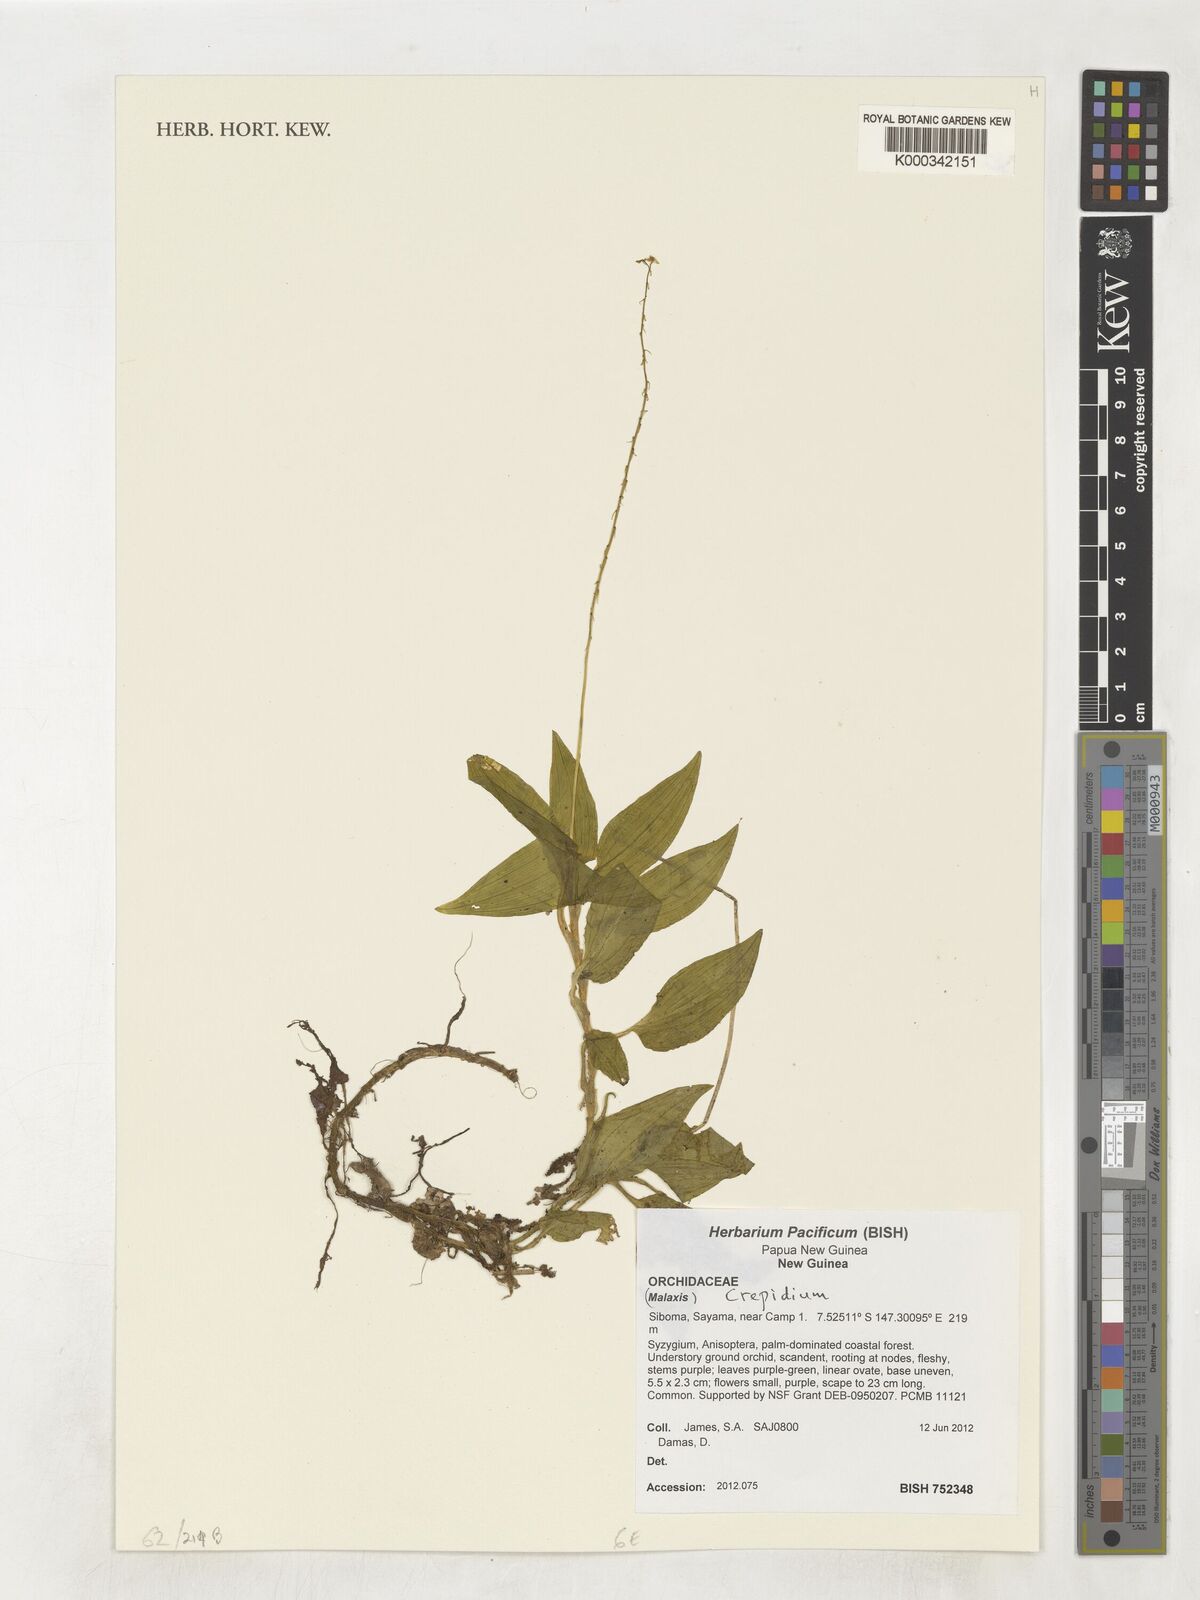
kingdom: Plantae
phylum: Tracheophyta
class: Liliopsida
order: Asparagales
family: Orchidaceae
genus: Crepidium
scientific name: Crepidium
